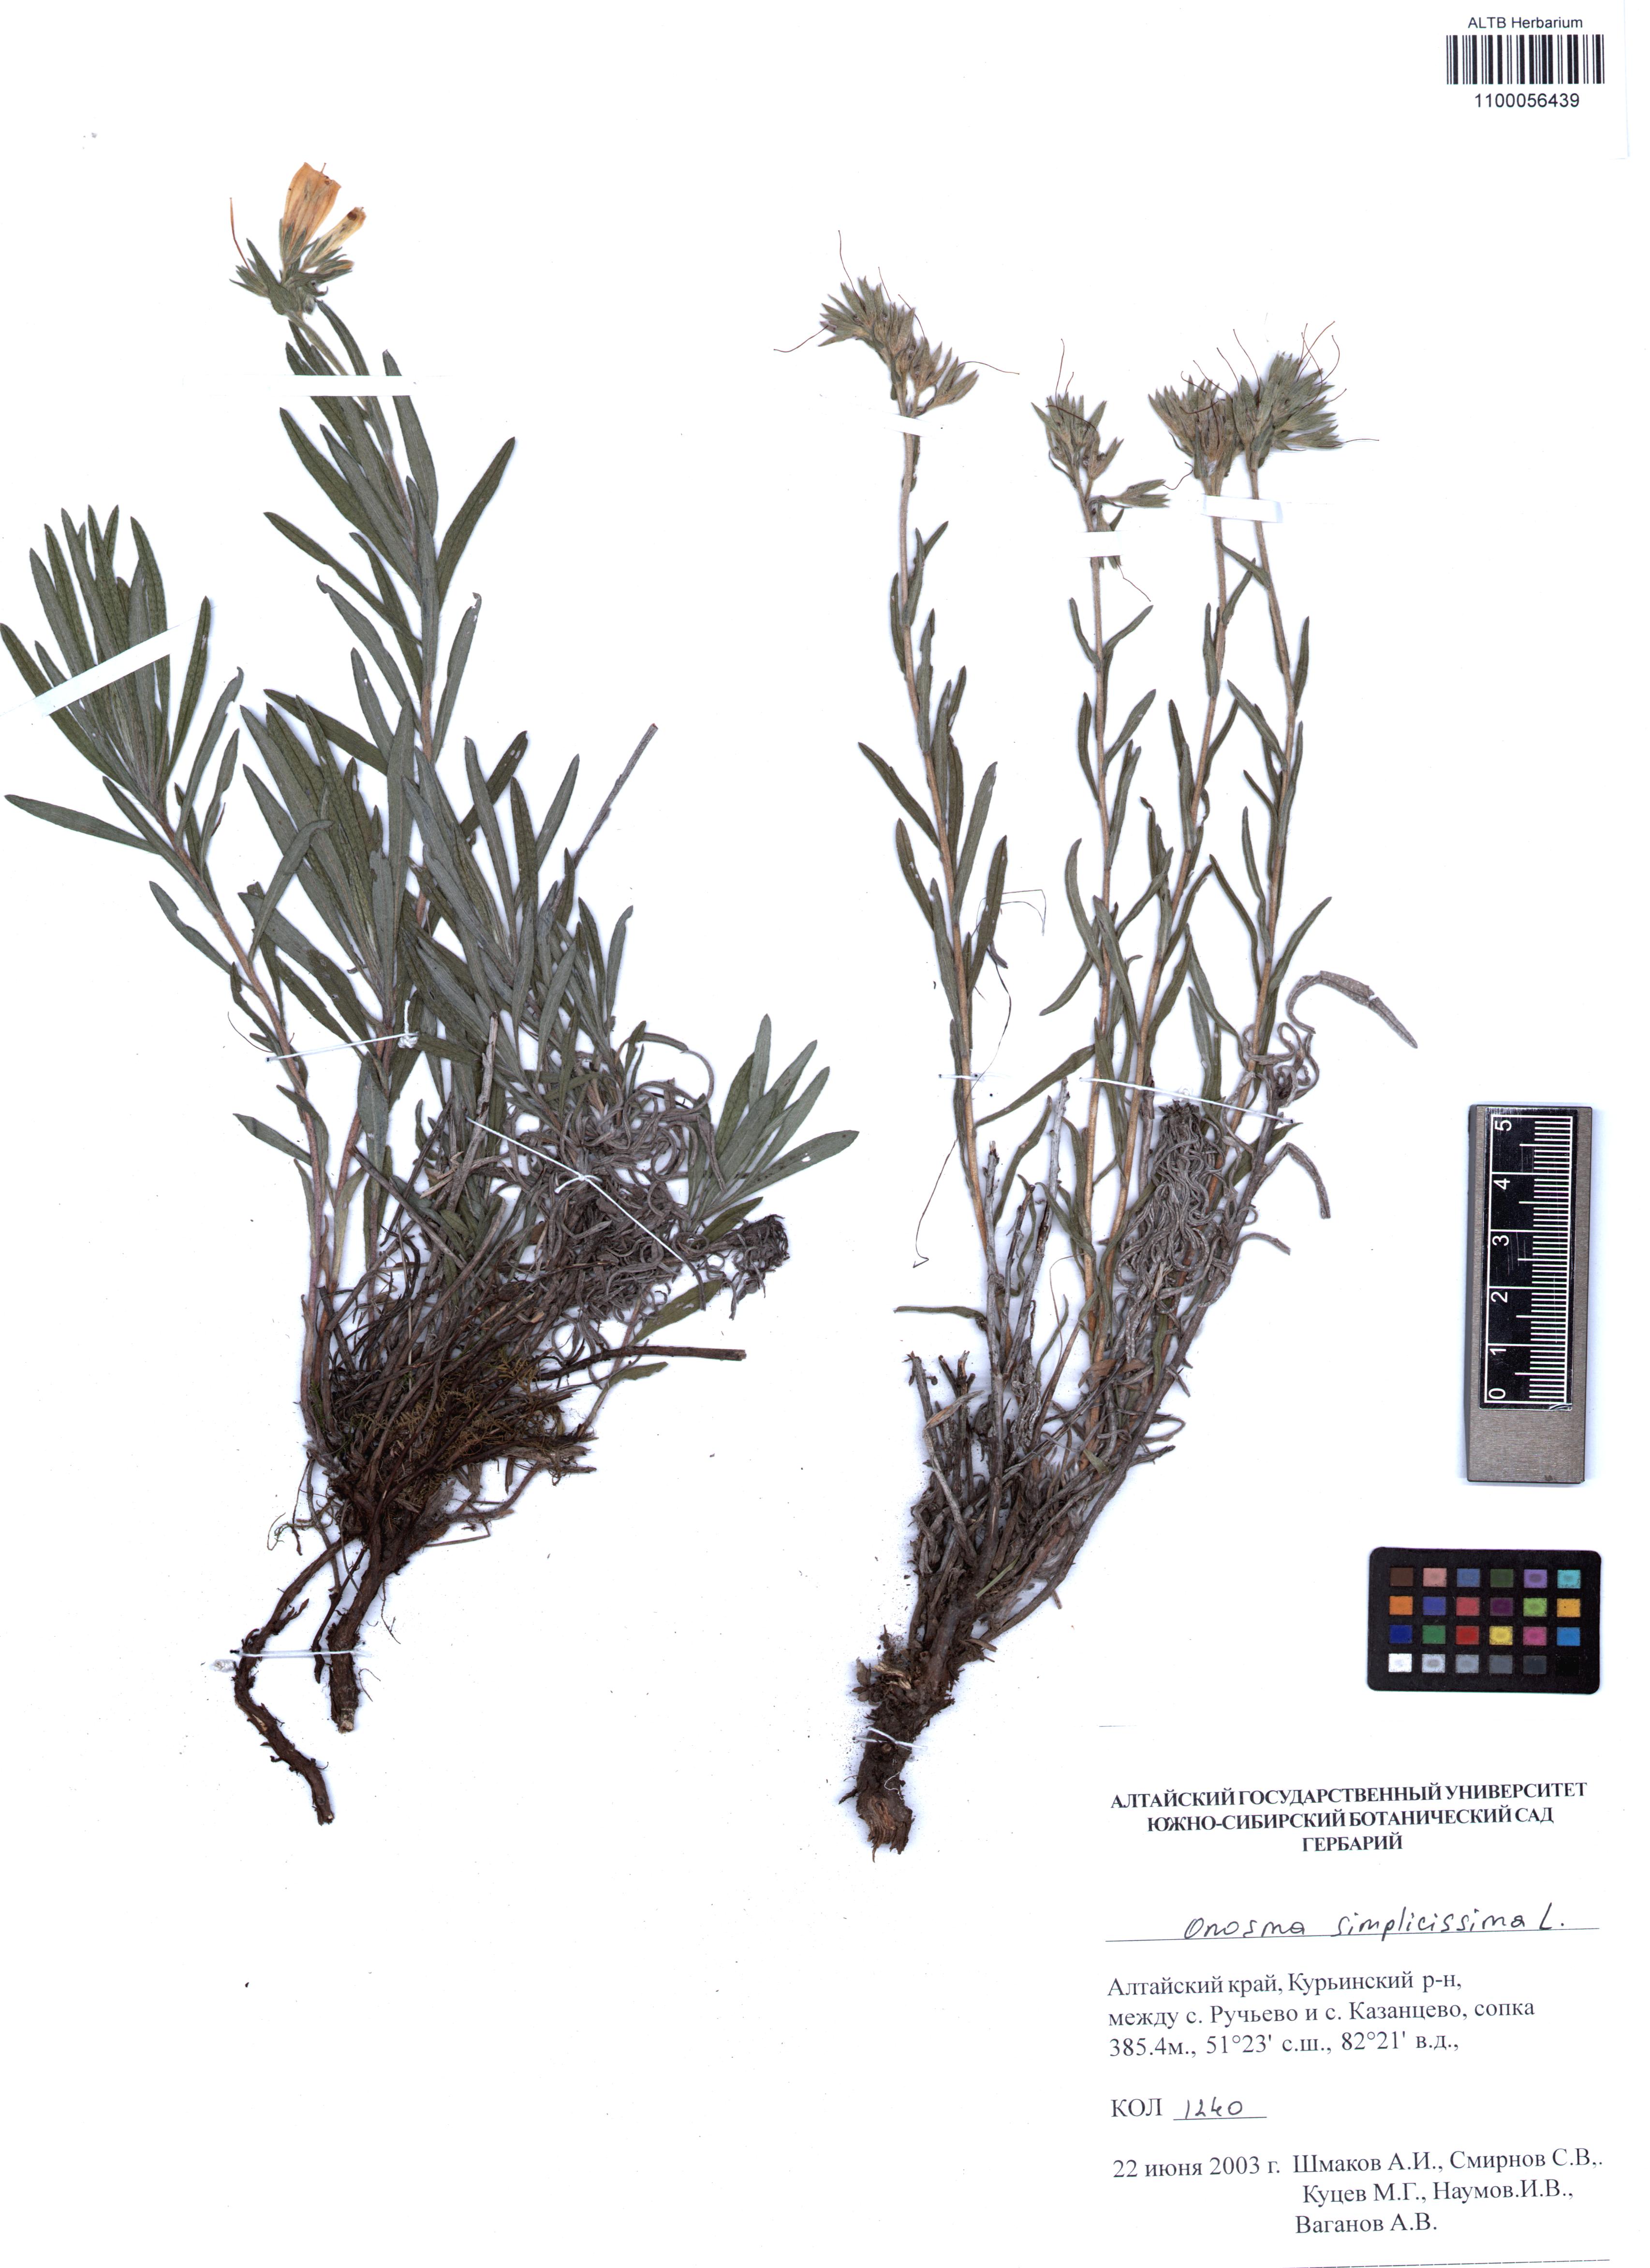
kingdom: Plantae
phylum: Tracheophyta
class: Magnoliopsida
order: Boraginales
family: Boraginaceae
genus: Onosma
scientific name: Onosma simplicissima
